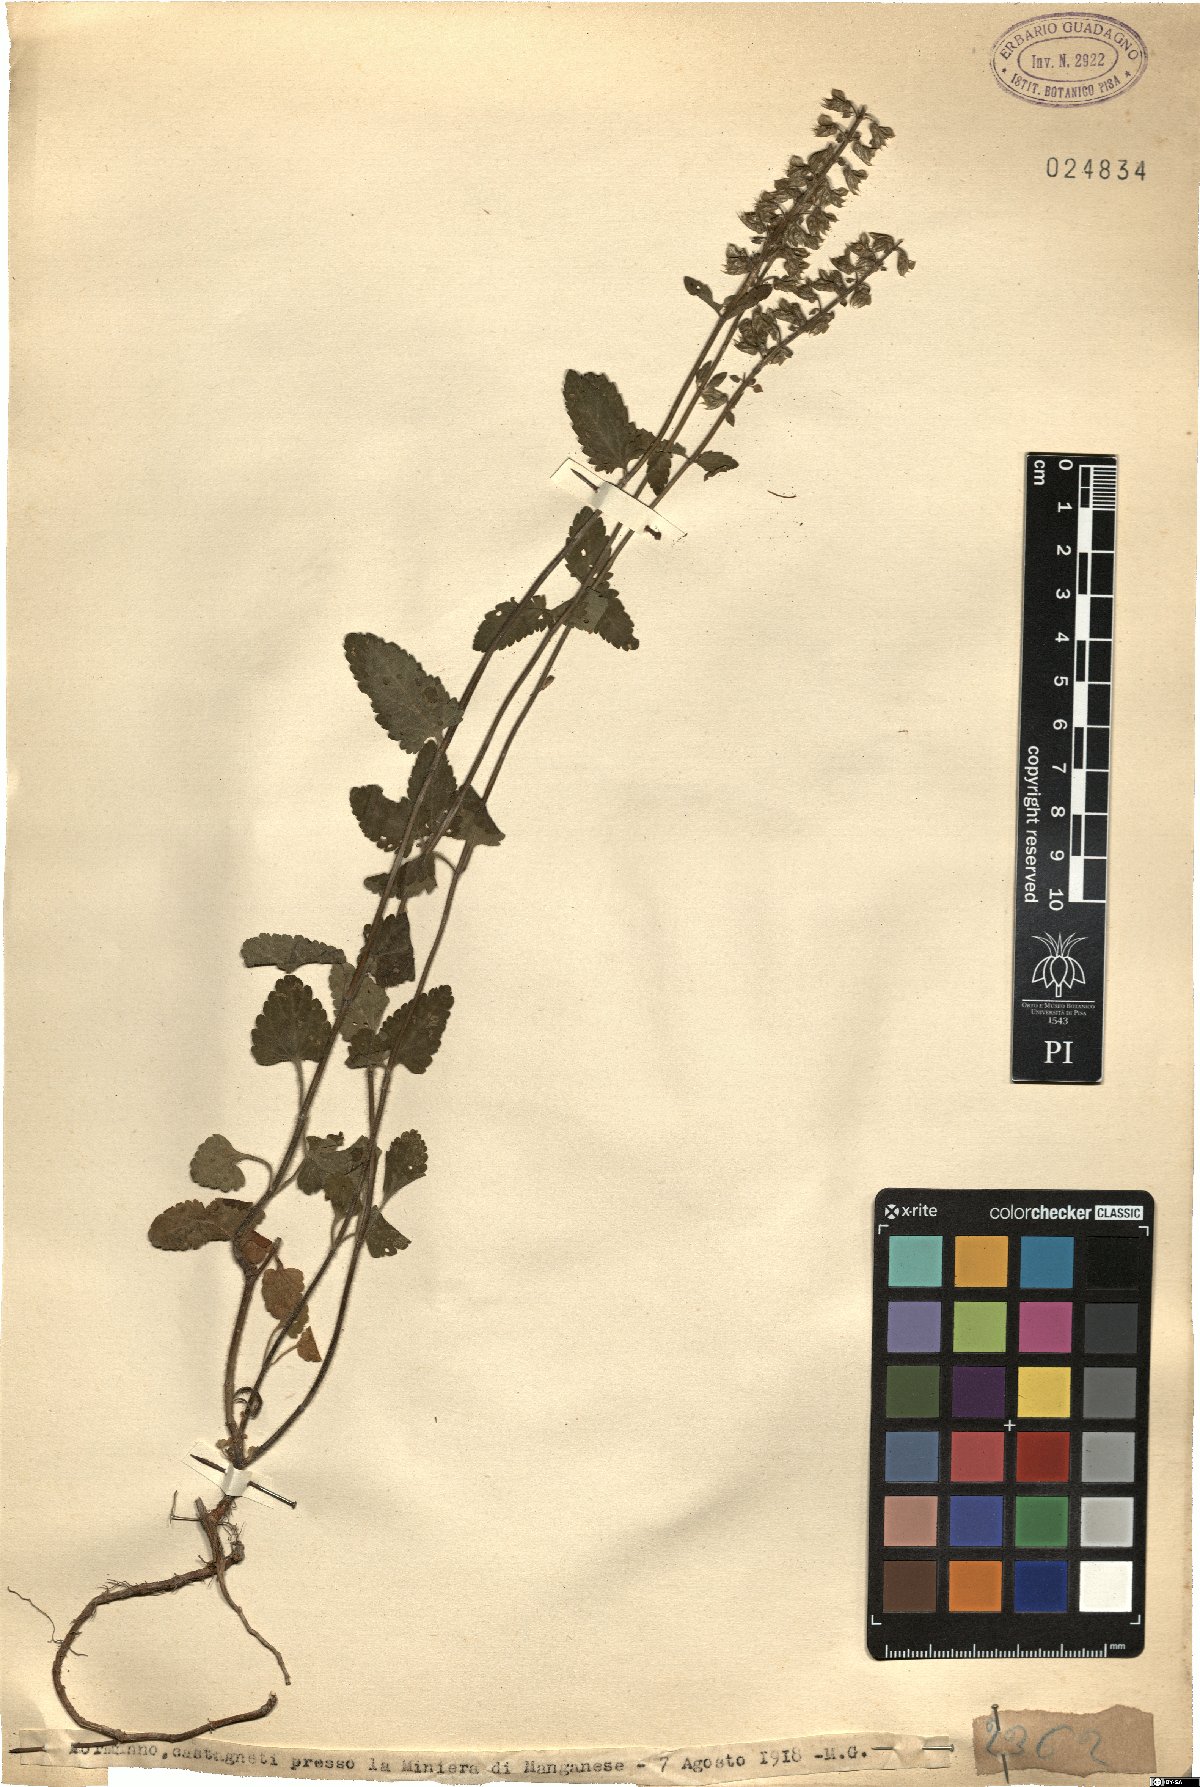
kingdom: Plantae
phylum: Tracheophyta
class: Magnoliopsida
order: Lamiales
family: Lamiaceae
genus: Teucrium
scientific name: Teucrium
